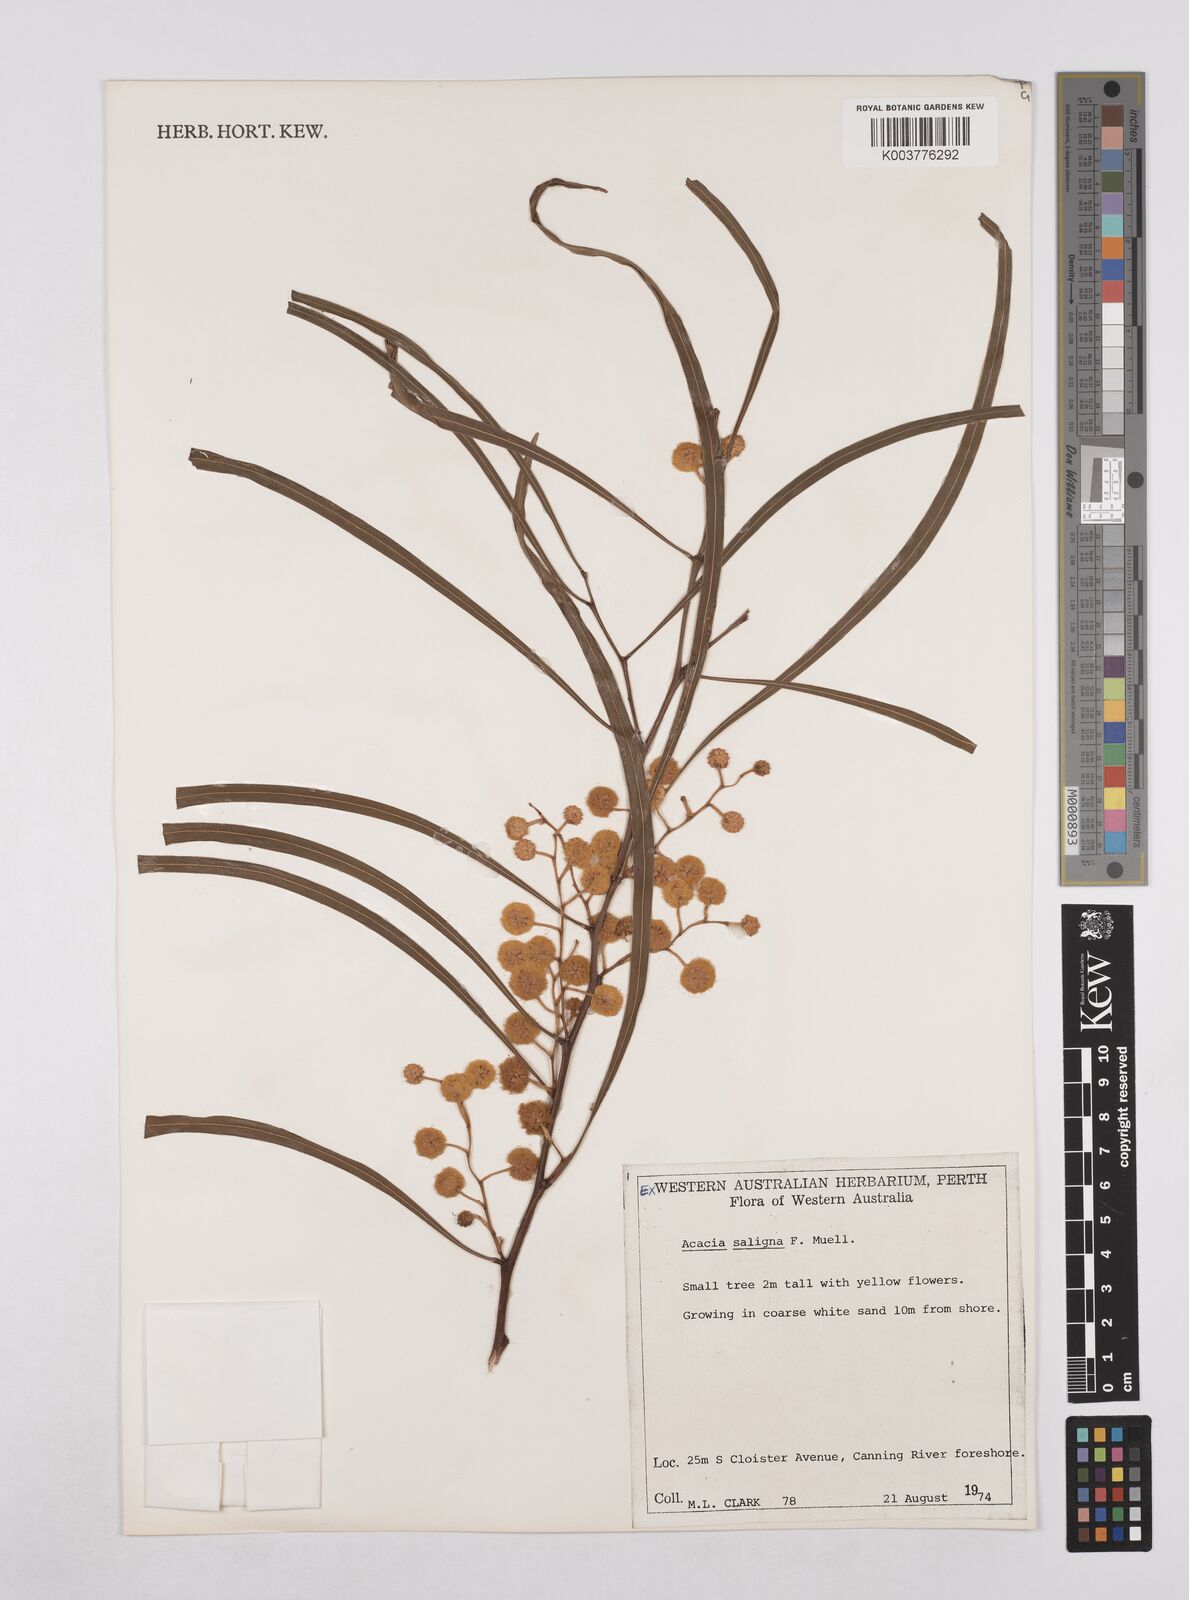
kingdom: Plantae
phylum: Tracheophyta
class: Magnoliopsida
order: Fabales
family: Fabaceae
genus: Acacia
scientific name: Acacia saligna
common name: Orange wattle
